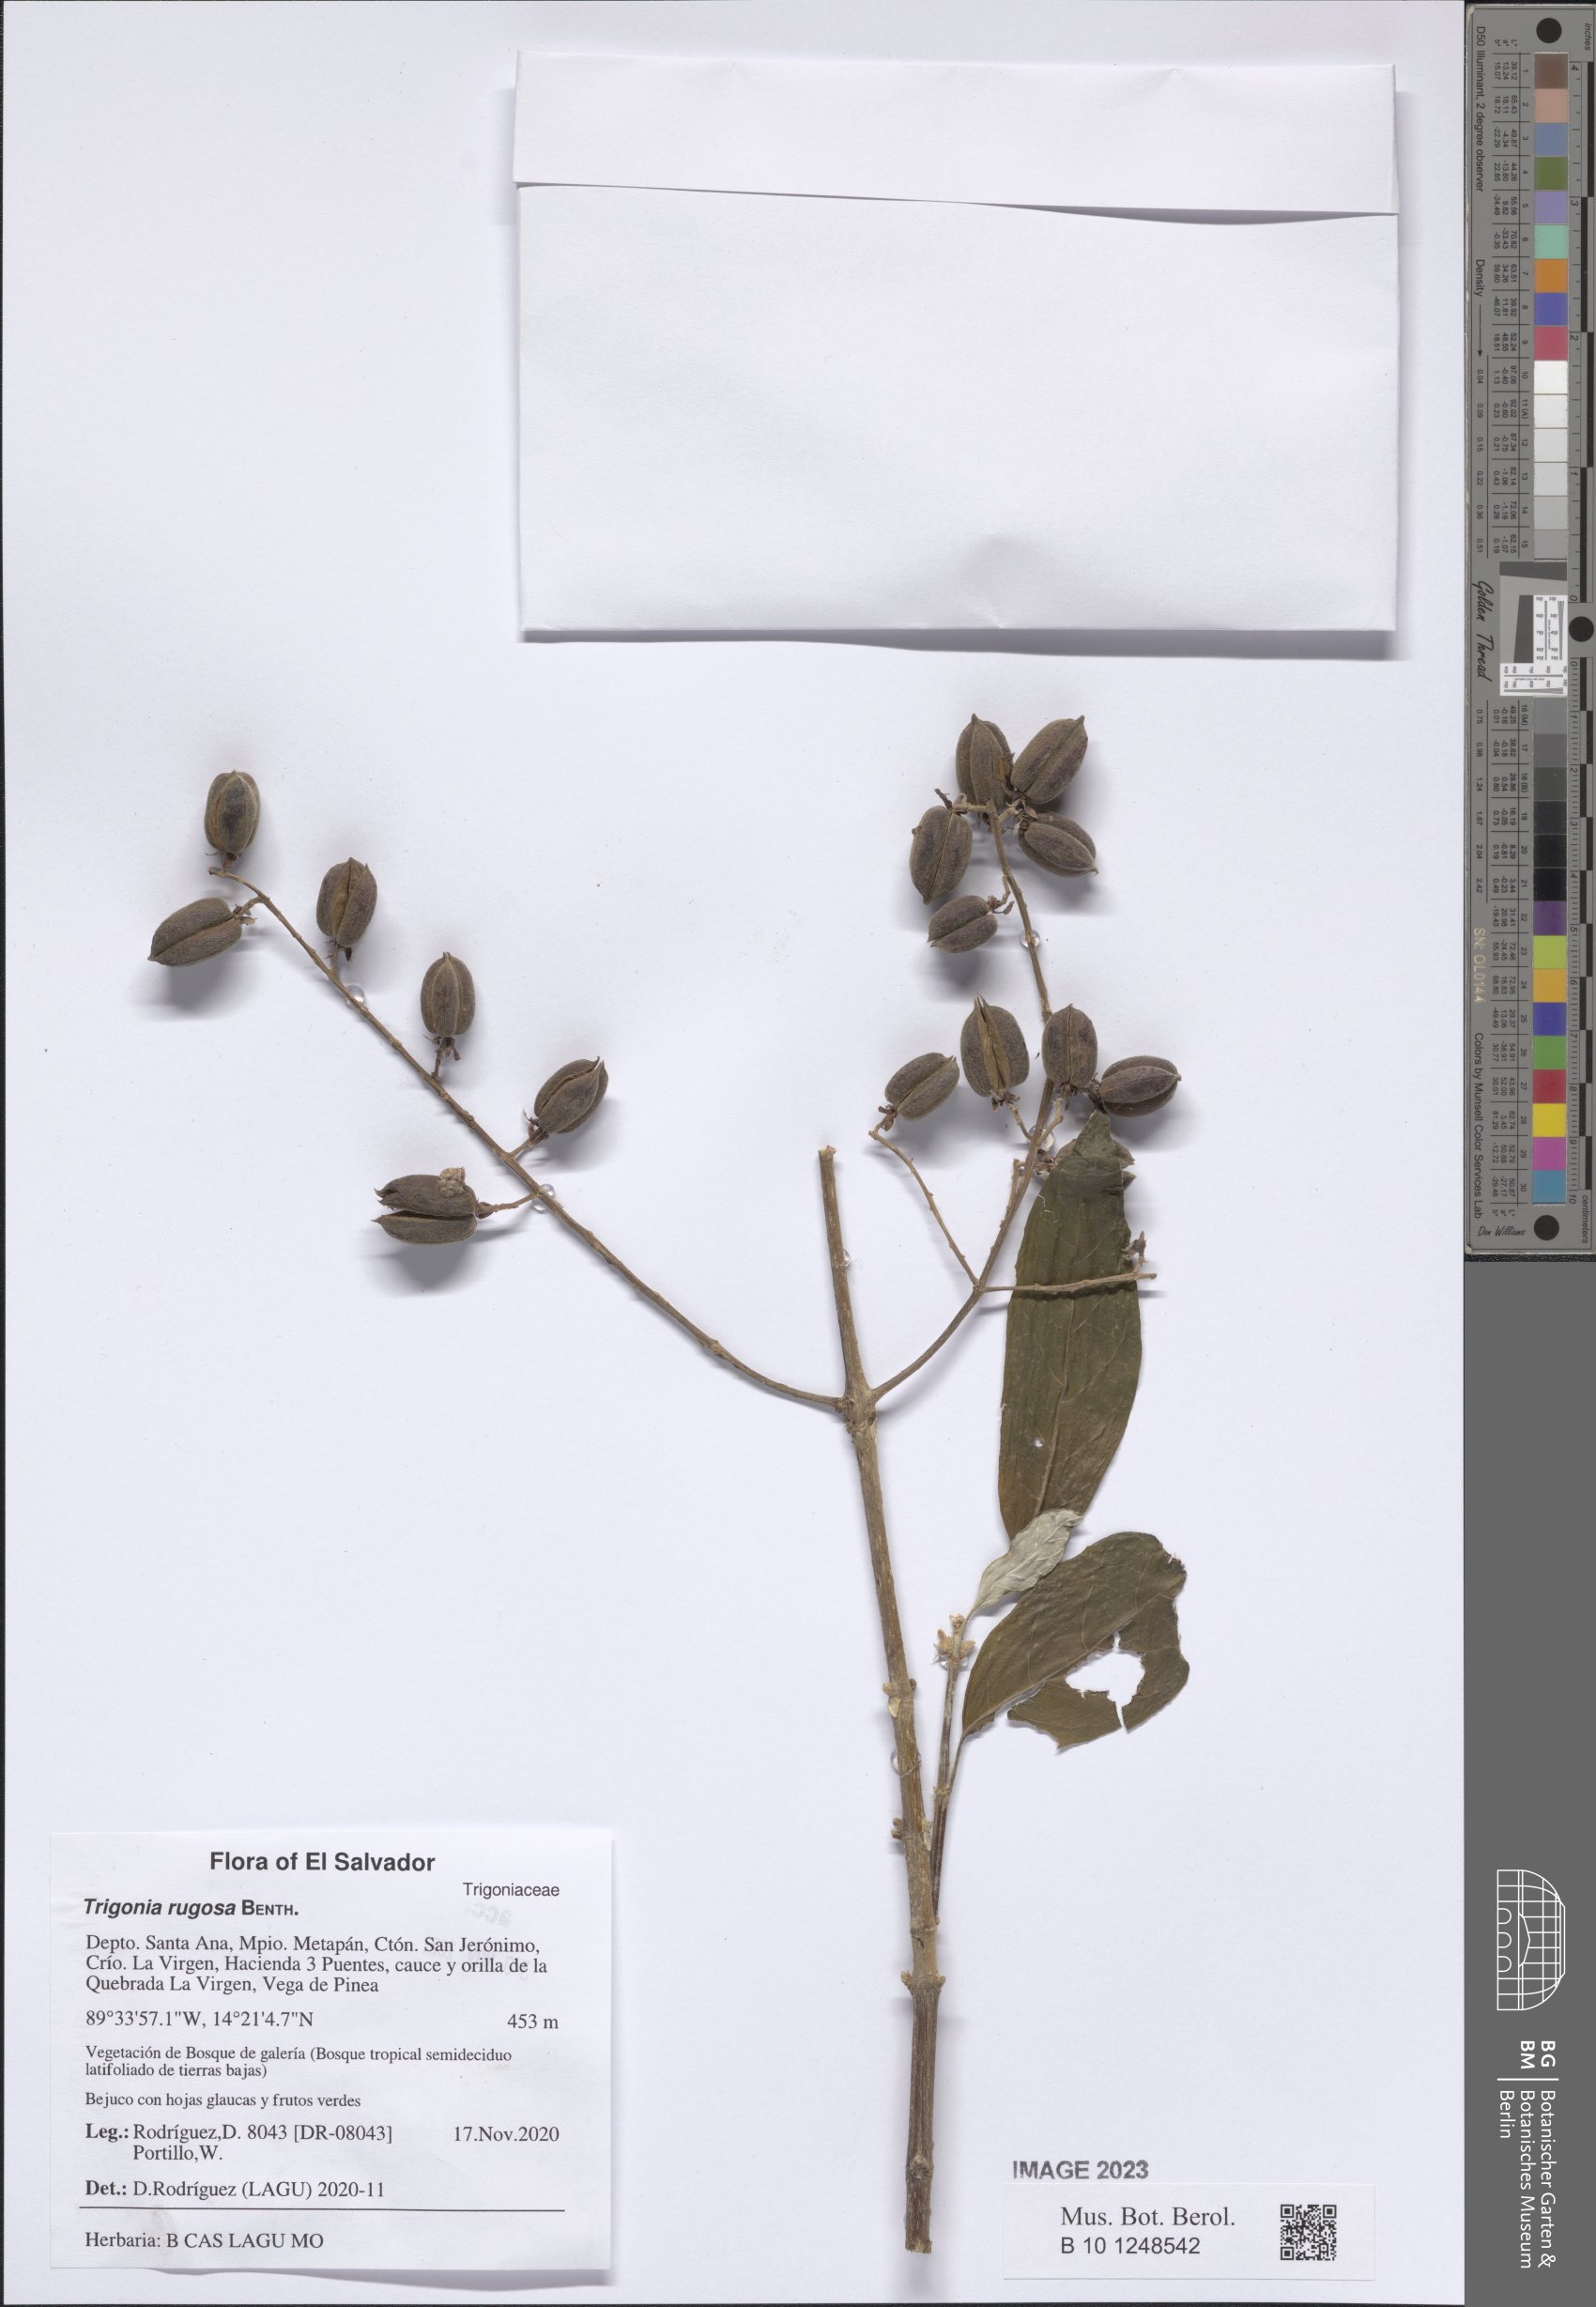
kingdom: Plantae
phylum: Tracheophyta
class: Magnoliopsida
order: Malpighiales
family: Trigoniaceae
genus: Trigonia
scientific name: Trigonia rugosa
